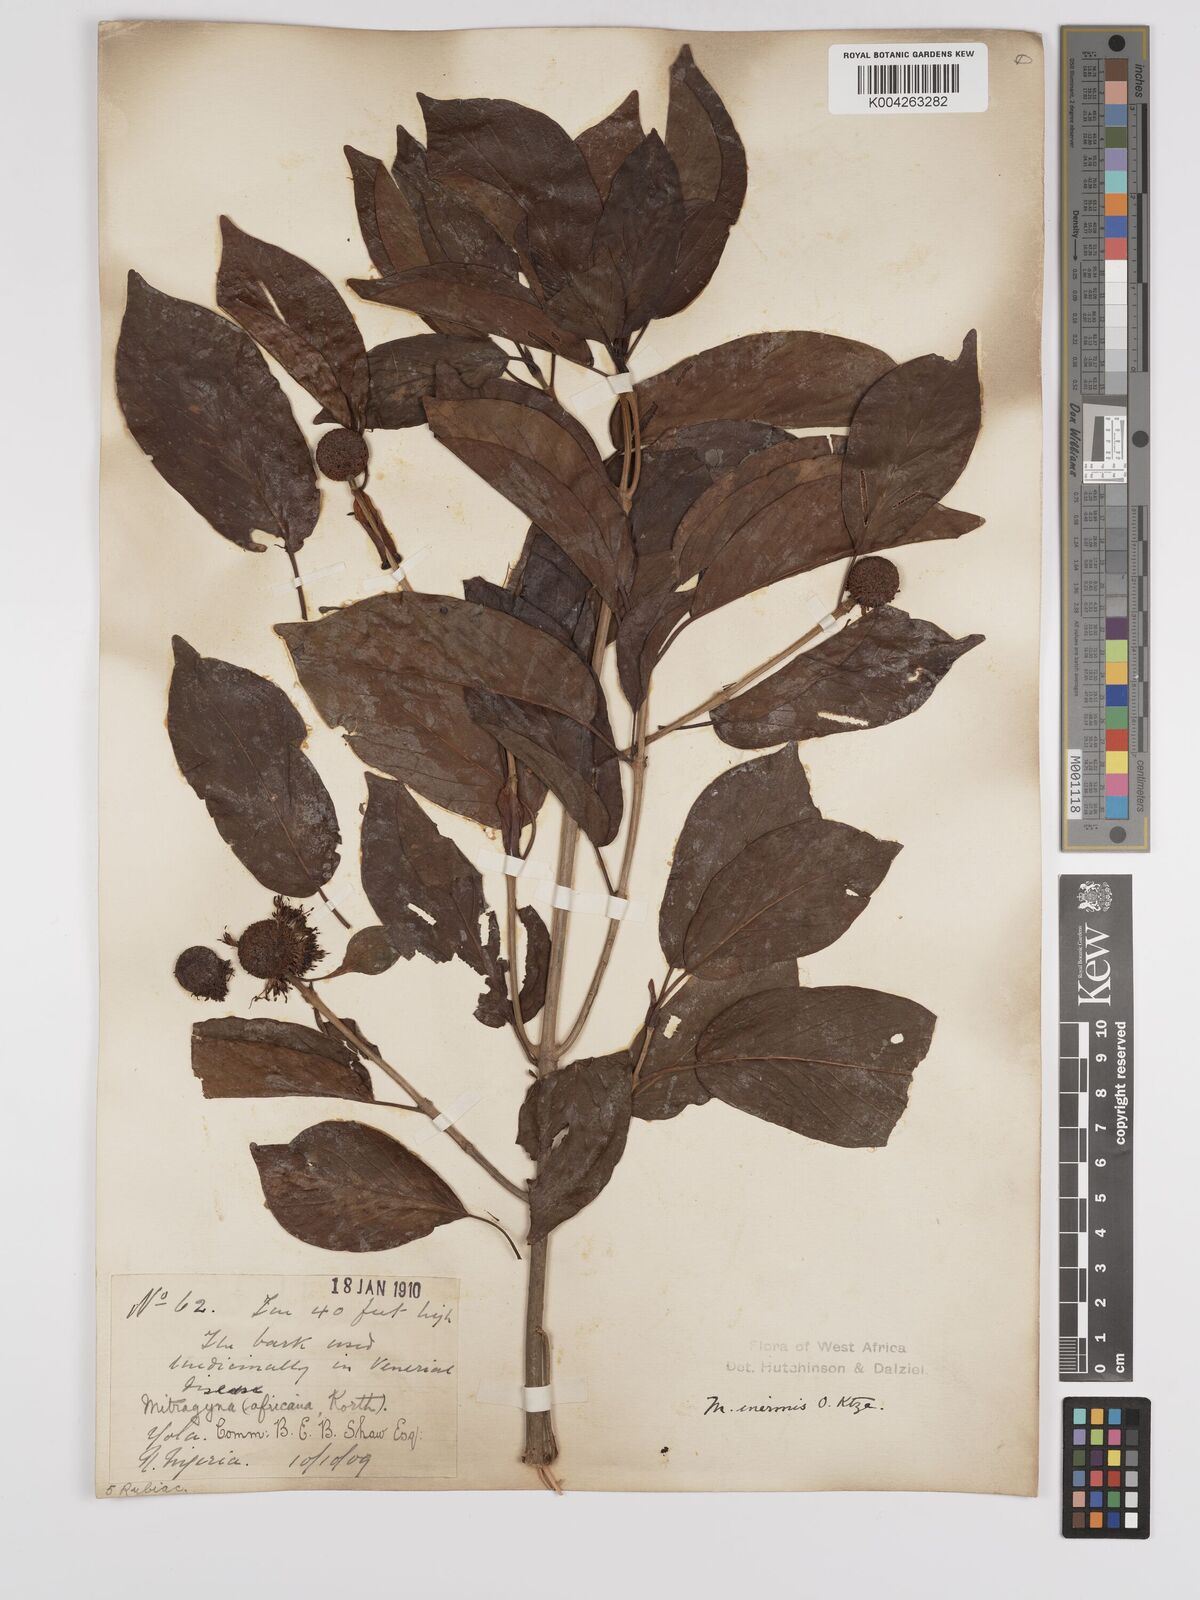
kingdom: Plantae
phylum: Tracheophyta
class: Magnoliopsida
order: Gentianales
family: Rubiaceae
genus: Mitragyna
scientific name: Mitragyna inermis
